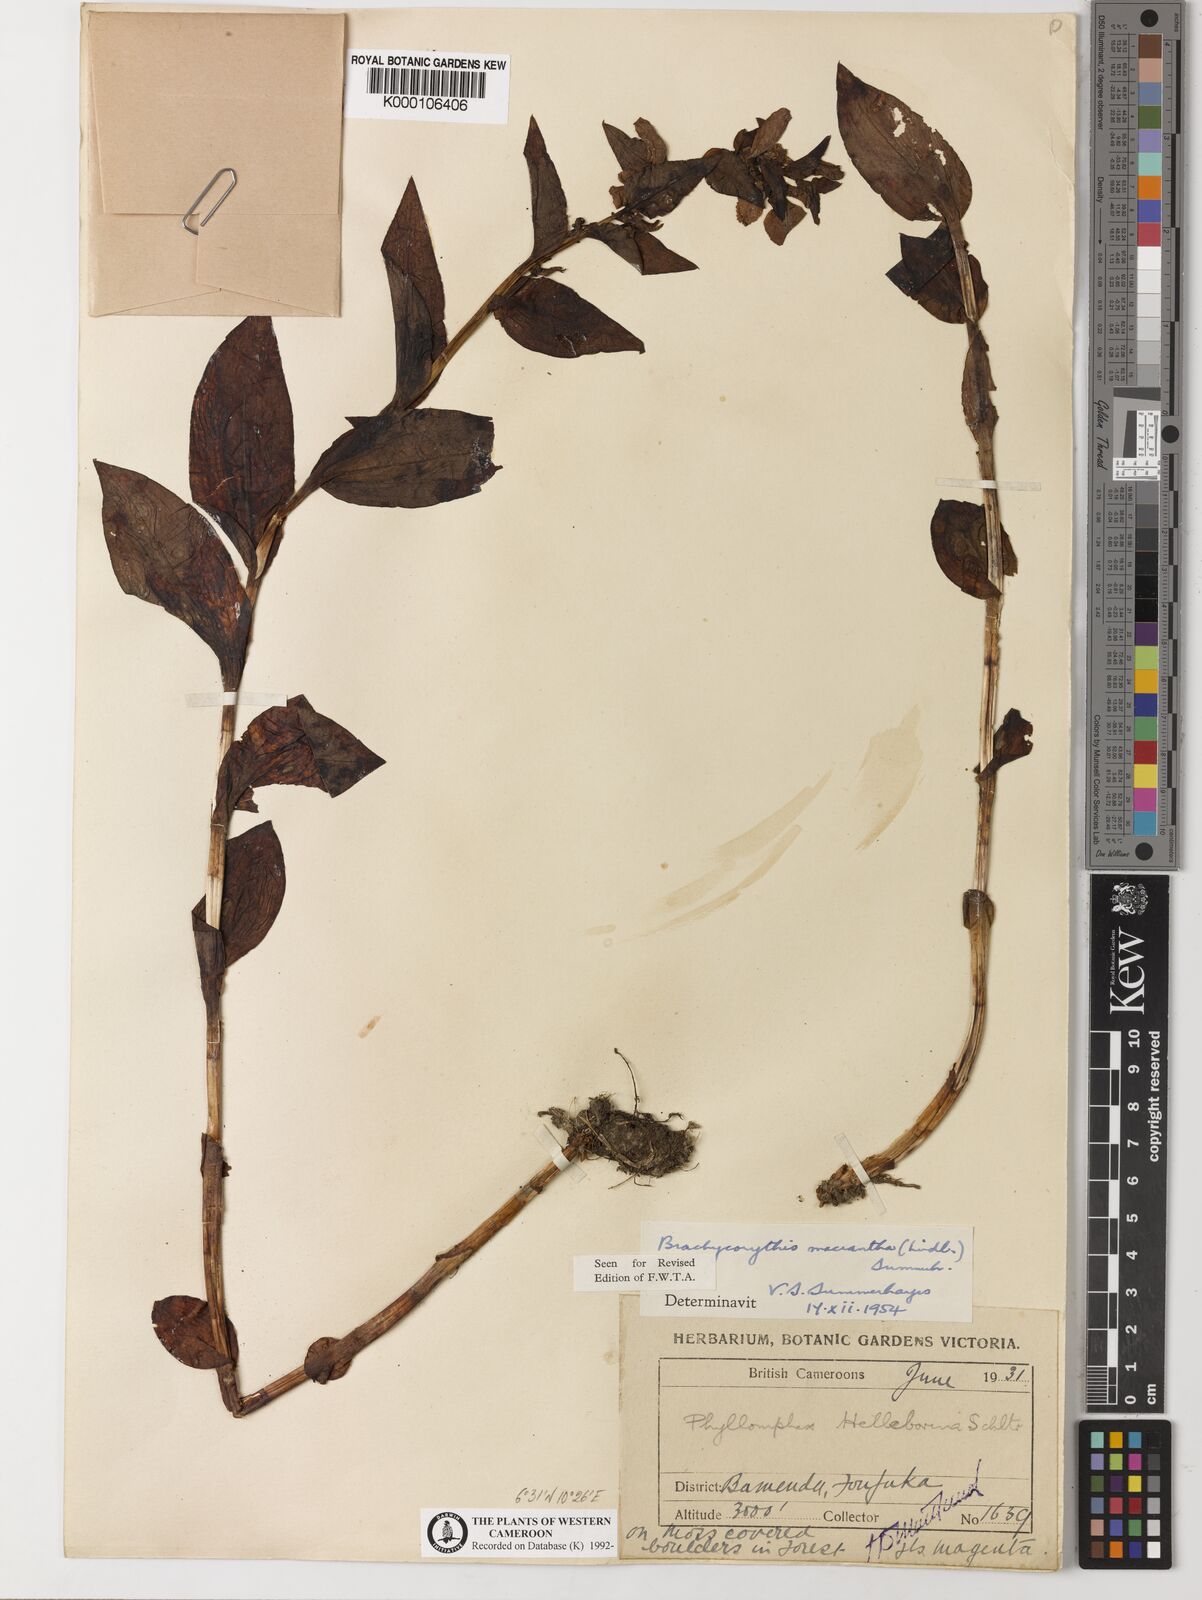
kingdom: Plantae
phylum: Tracheophyta
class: Liliopsida
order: Asparagales
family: Orchidaceae
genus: Brachycorythis
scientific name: Brachycorythis macrantha
